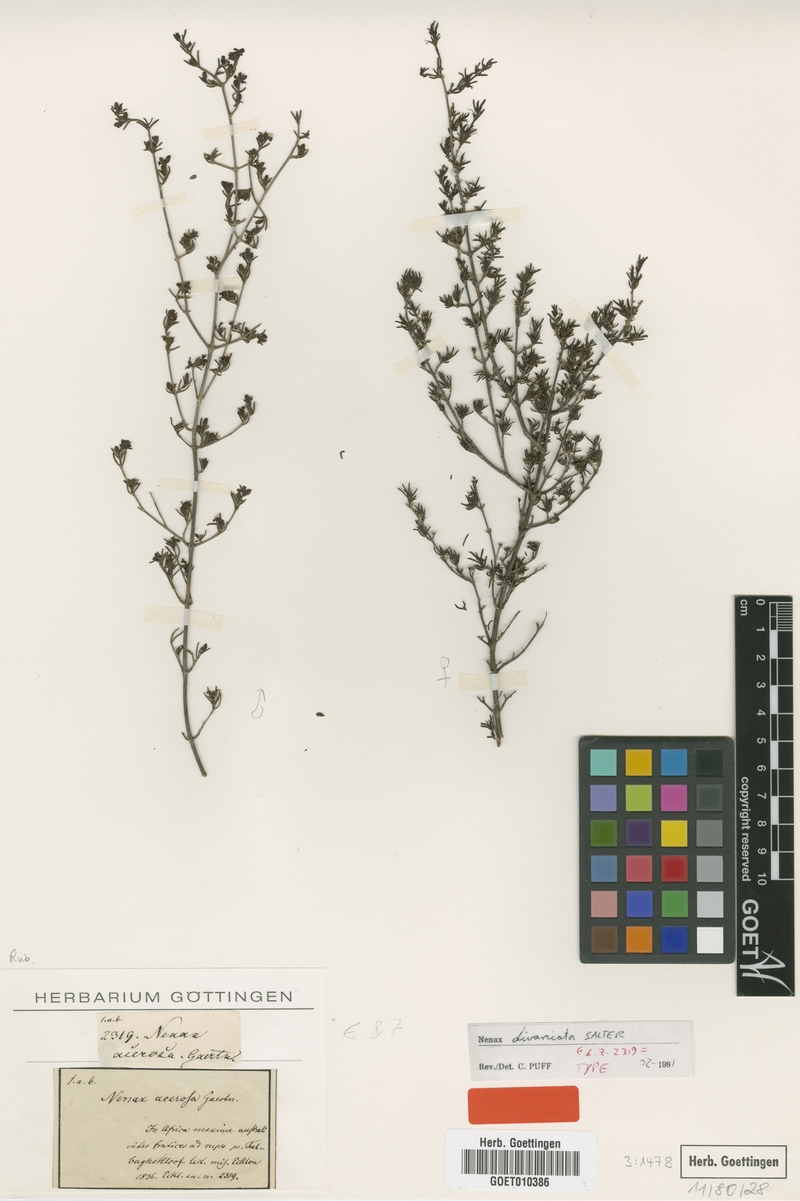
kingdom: Plantae
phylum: Tracheophyta
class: Magnoliopsida
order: Gentianales
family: Rubiaceae
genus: Nenax
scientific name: Nenax divaricata
